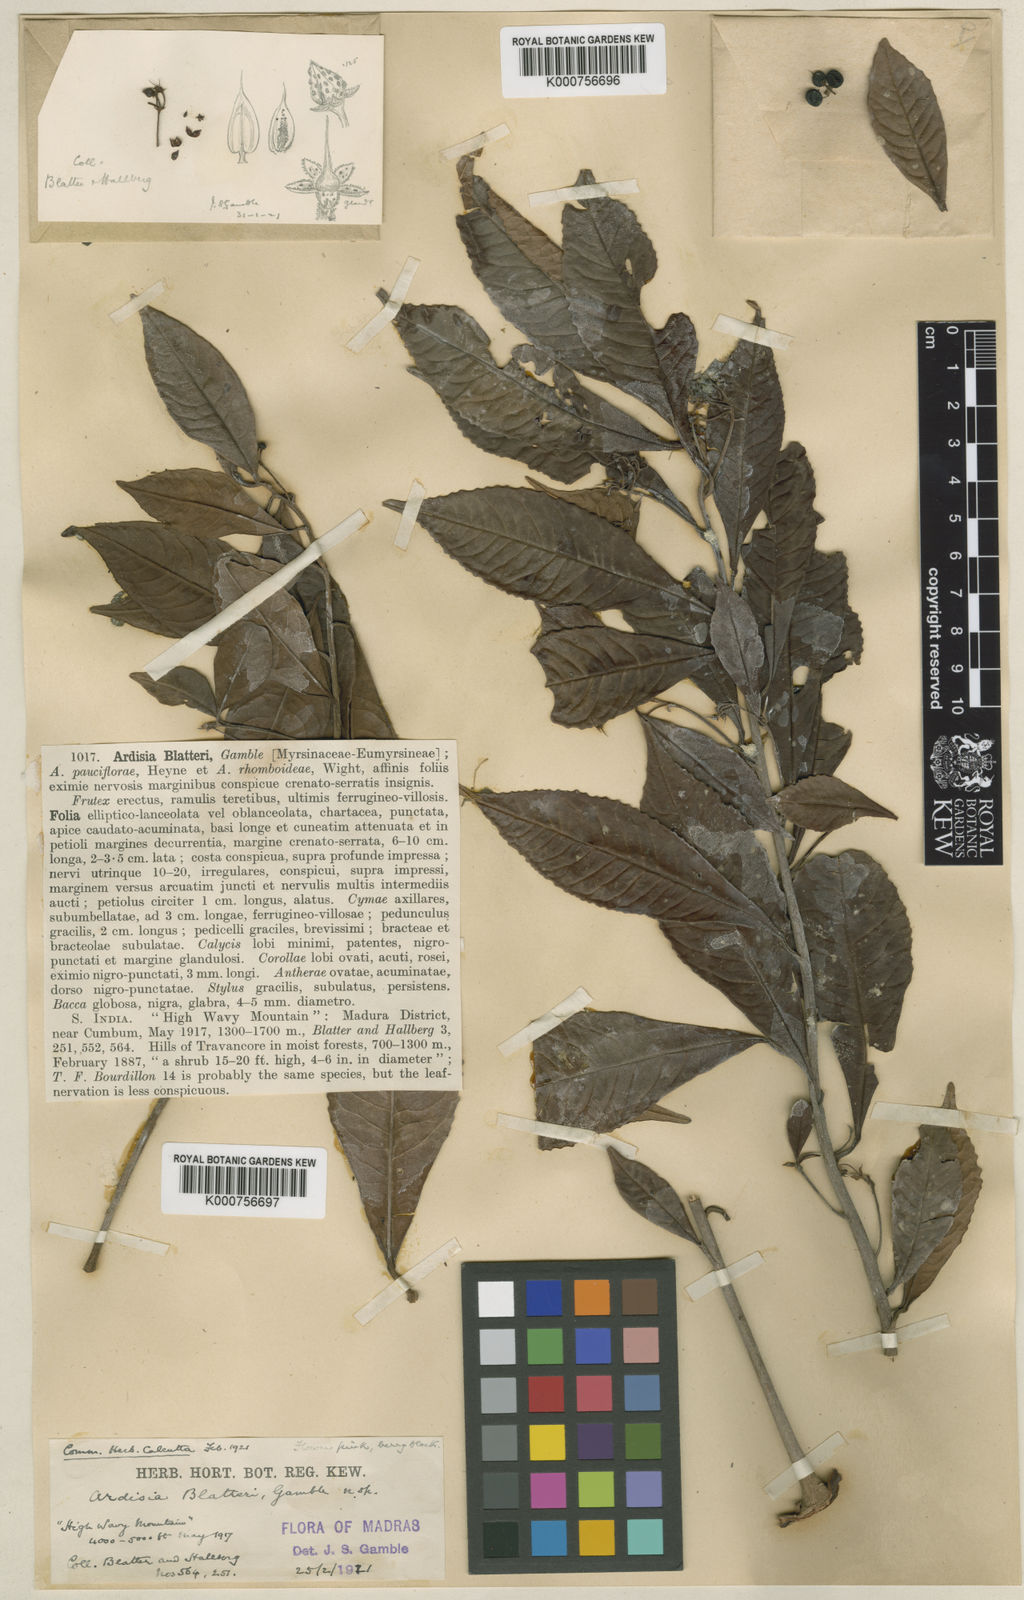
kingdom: Plantae
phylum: Tracheophyta
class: Magnoliopsida
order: Ericales
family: Primulaceae
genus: Ardisia
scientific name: Ardisia blatteri
